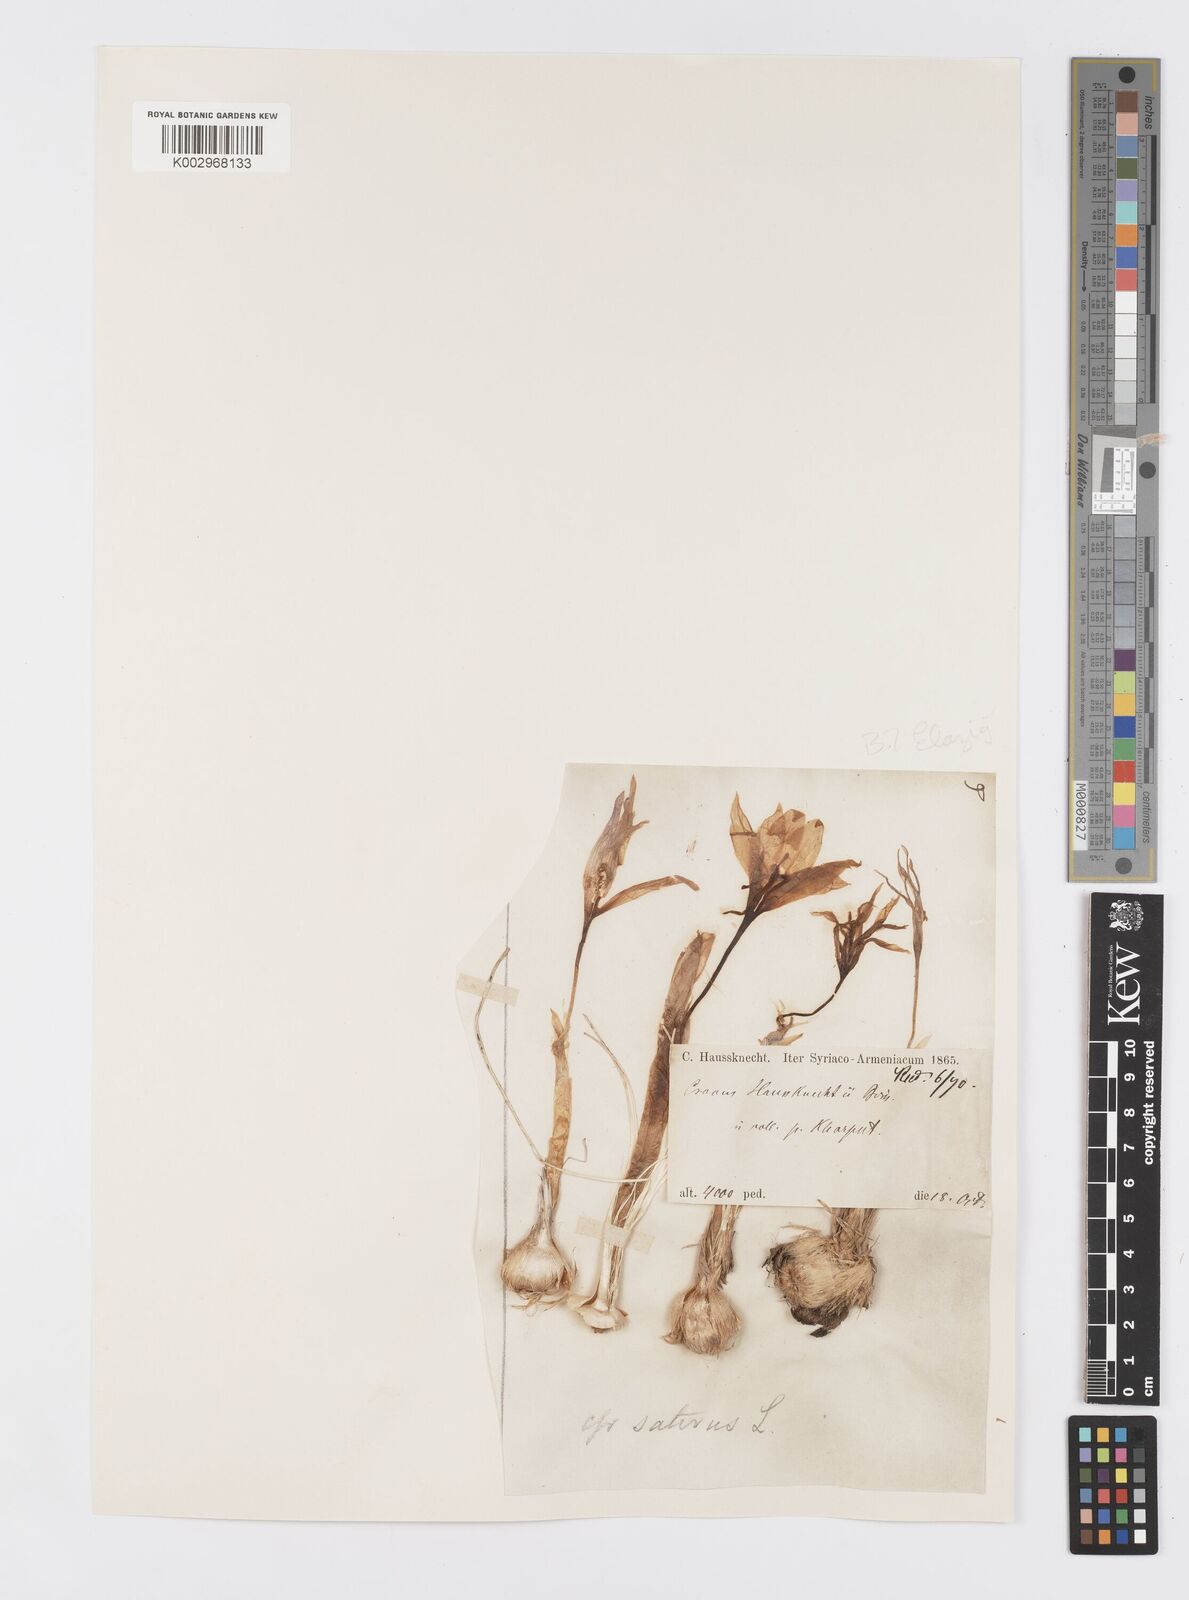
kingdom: Plantae
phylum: Tracheophyta
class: Liliopsida
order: Asparagales
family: Iridaceae
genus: Crocus
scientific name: Crocus turcicus
